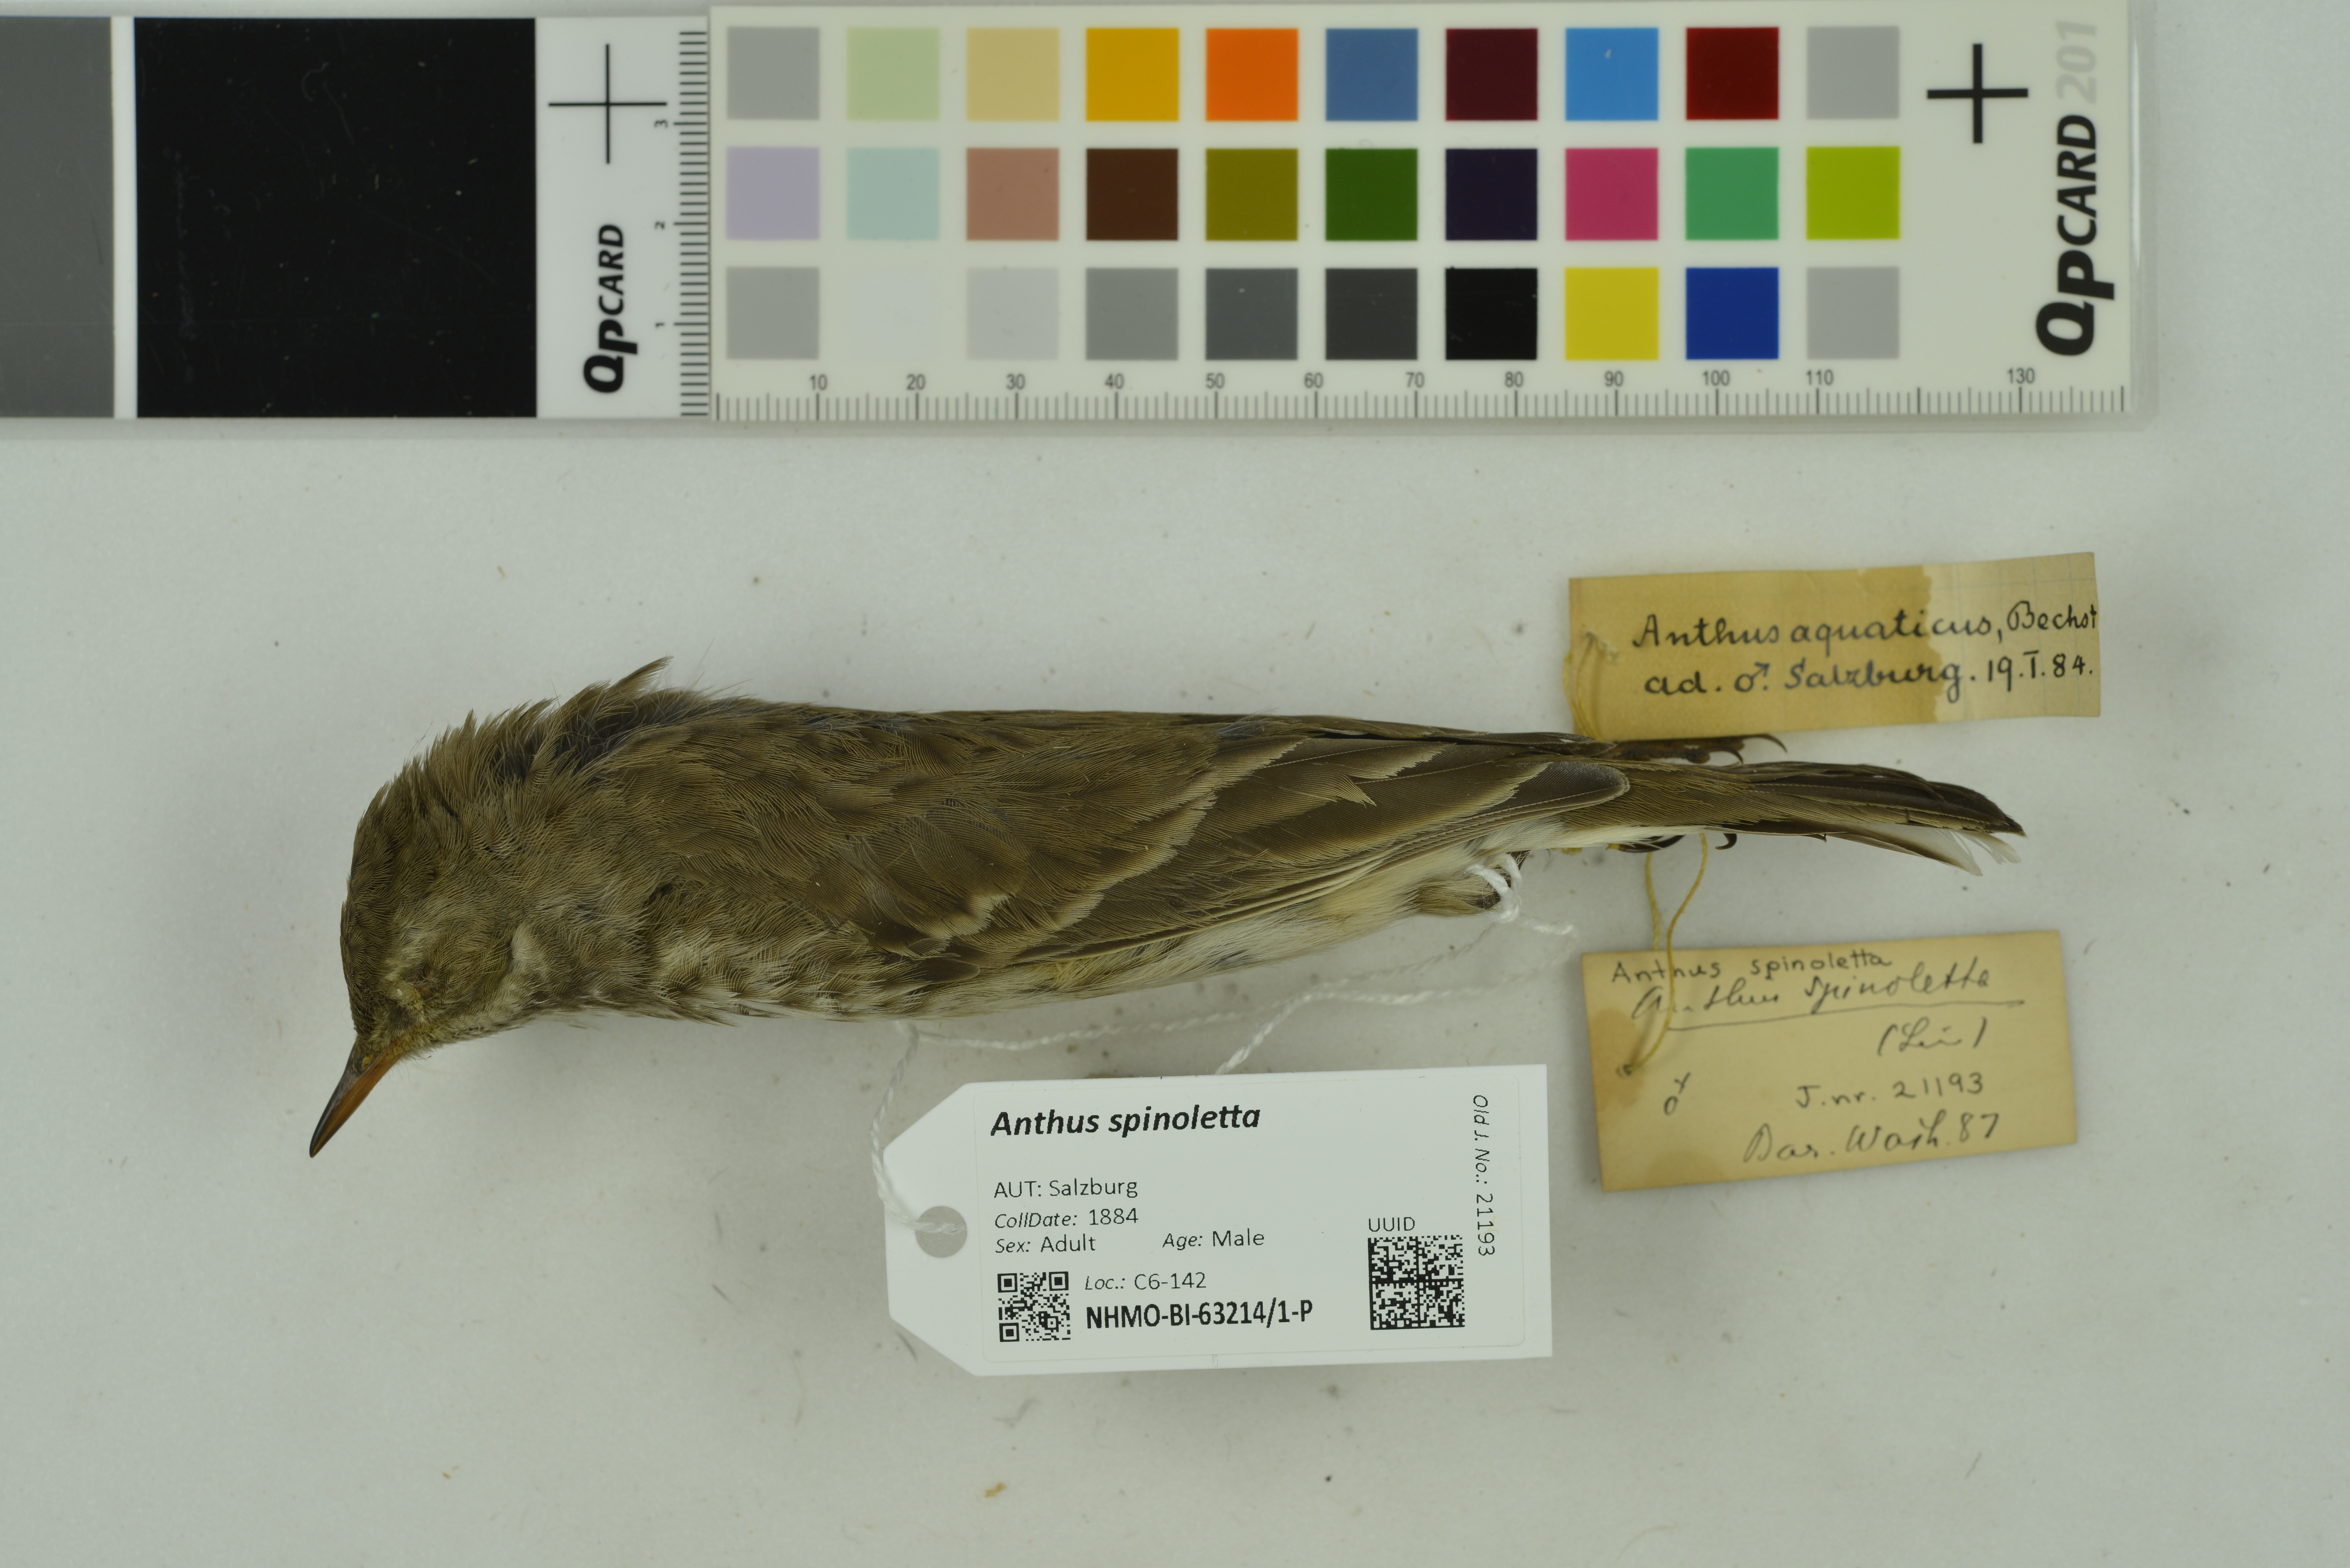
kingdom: Animalia
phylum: Chordata
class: Aves
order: Passeriformes
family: Motacillidae
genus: Anthus
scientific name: Anthus spinoletta
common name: Water pipit
